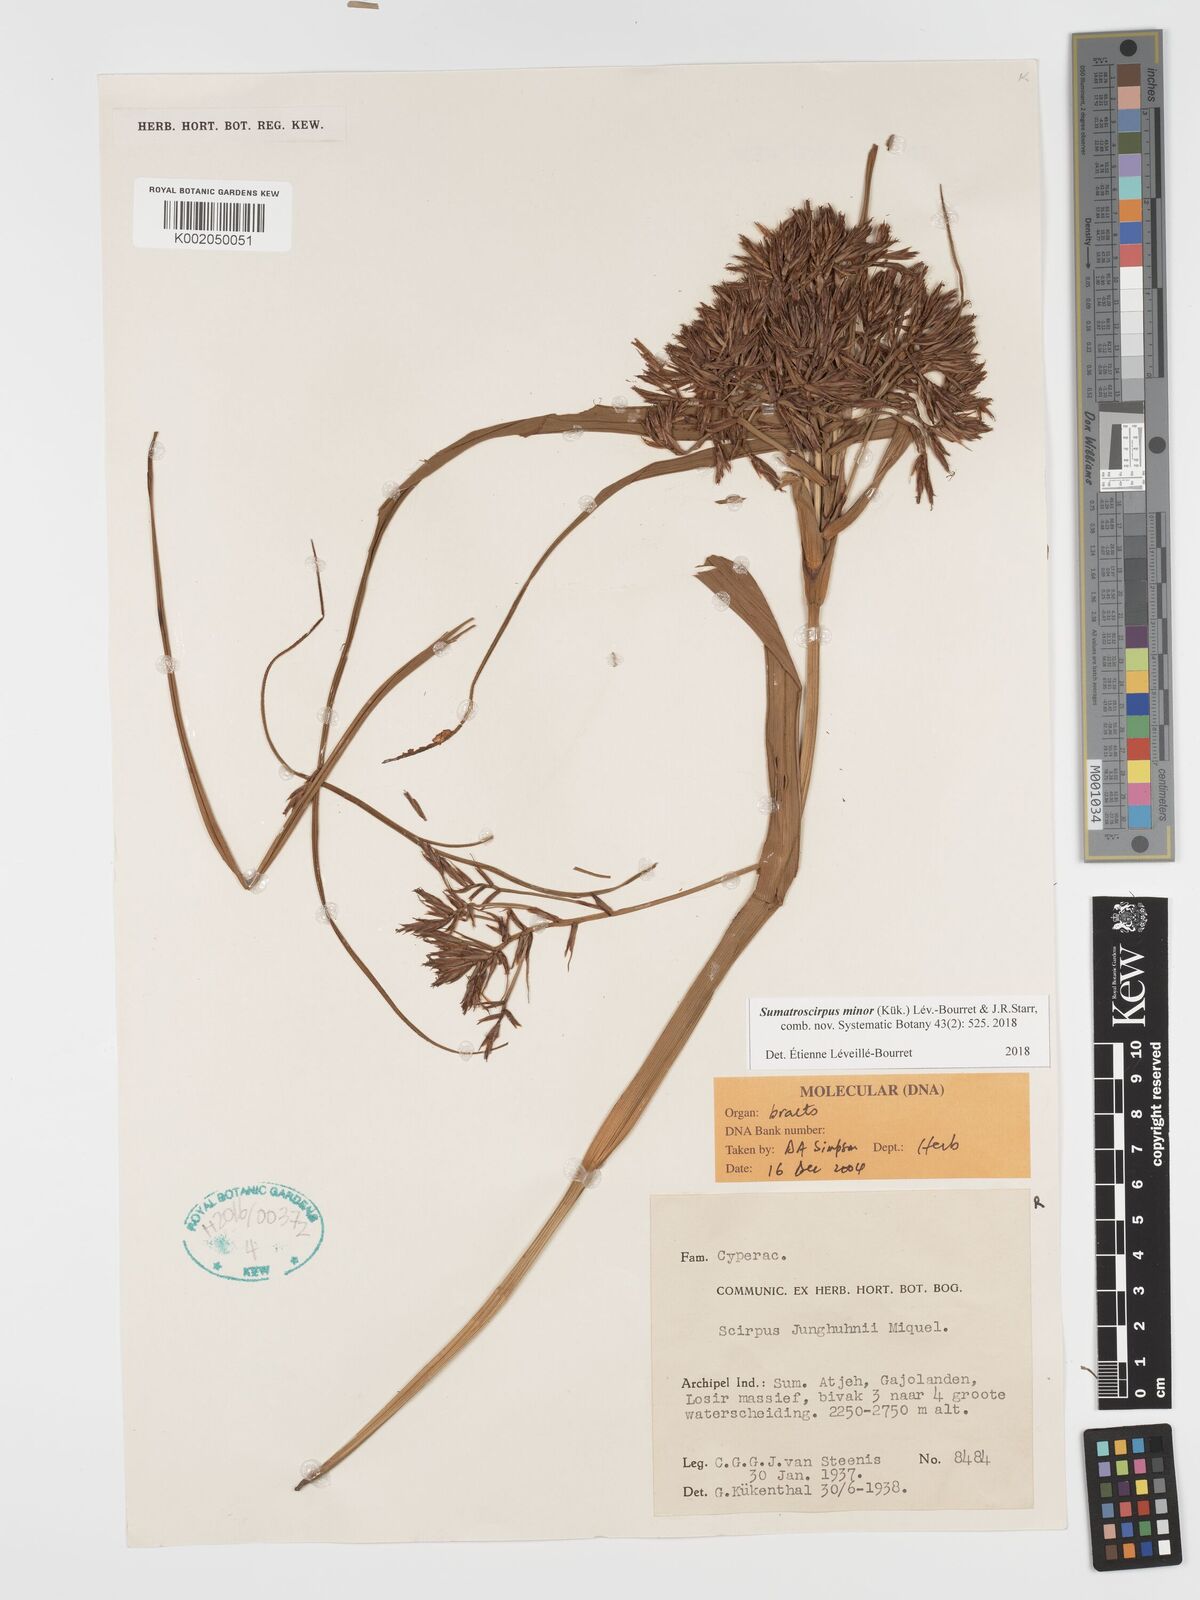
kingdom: Plantae
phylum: Tracheophyta
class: Liliopsida
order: Poales
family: Cyperaceae
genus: Sumatroscirpus
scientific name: Sumatroscirpus minor
